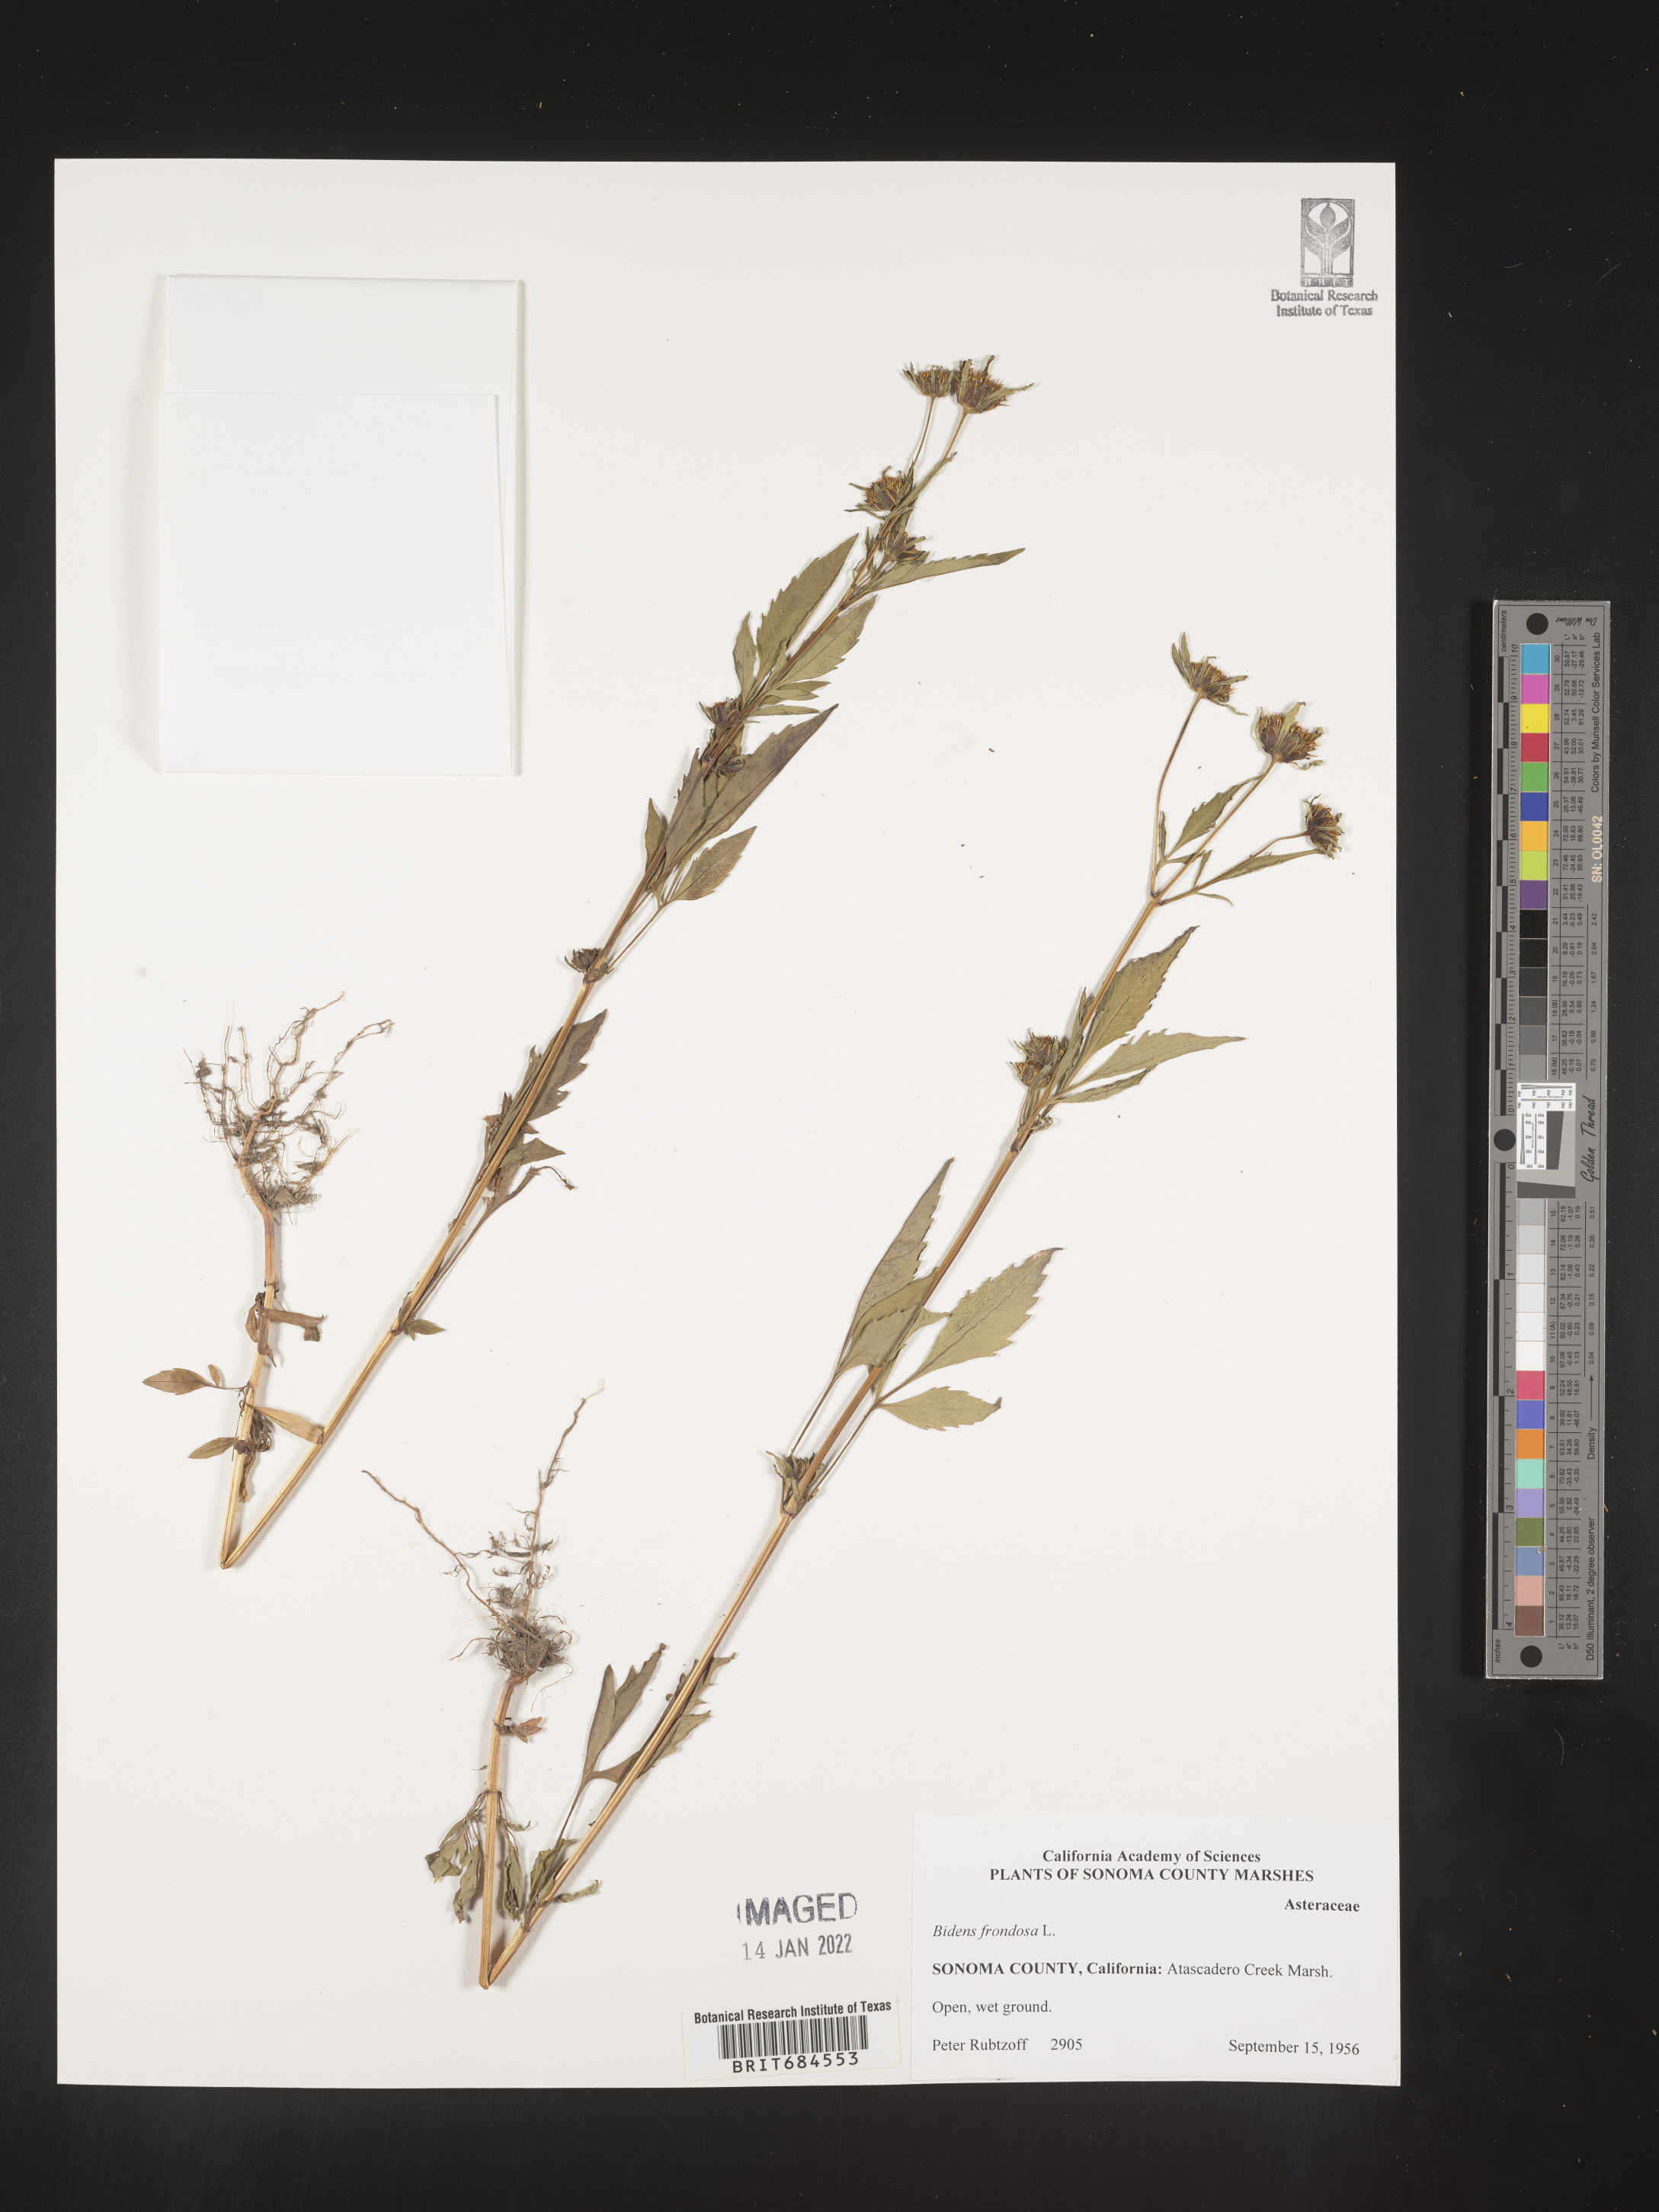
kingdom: Plantae
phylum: Tracheophyta
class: Magnoliopsida
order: Asterales
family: Asteraceae
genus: Bidens
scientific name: Bidens frondosa
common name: Beggarticks
